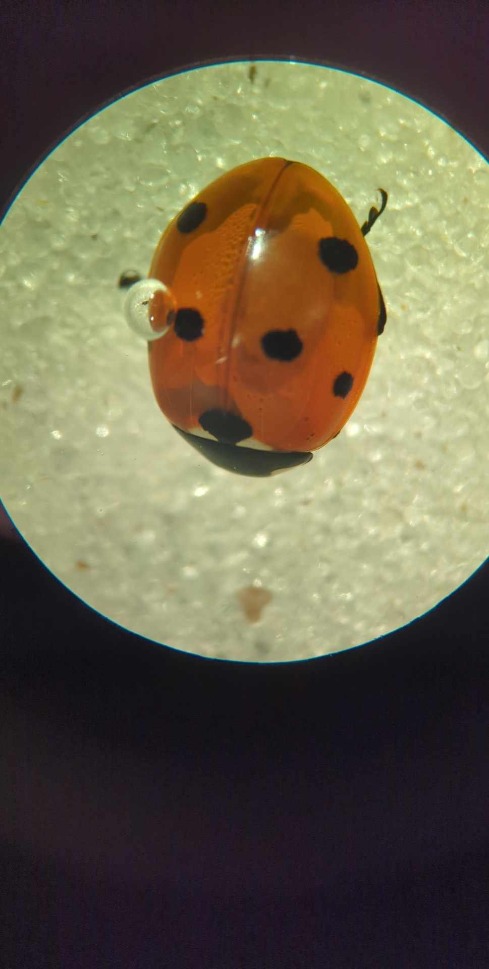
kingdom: Animalia
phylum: Arthropoda
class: Insecta
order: Coleoptera
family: Coccinellidae
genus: Coccinella
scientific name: Coccinella septempunctata
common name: Syvplettet mariehøne
